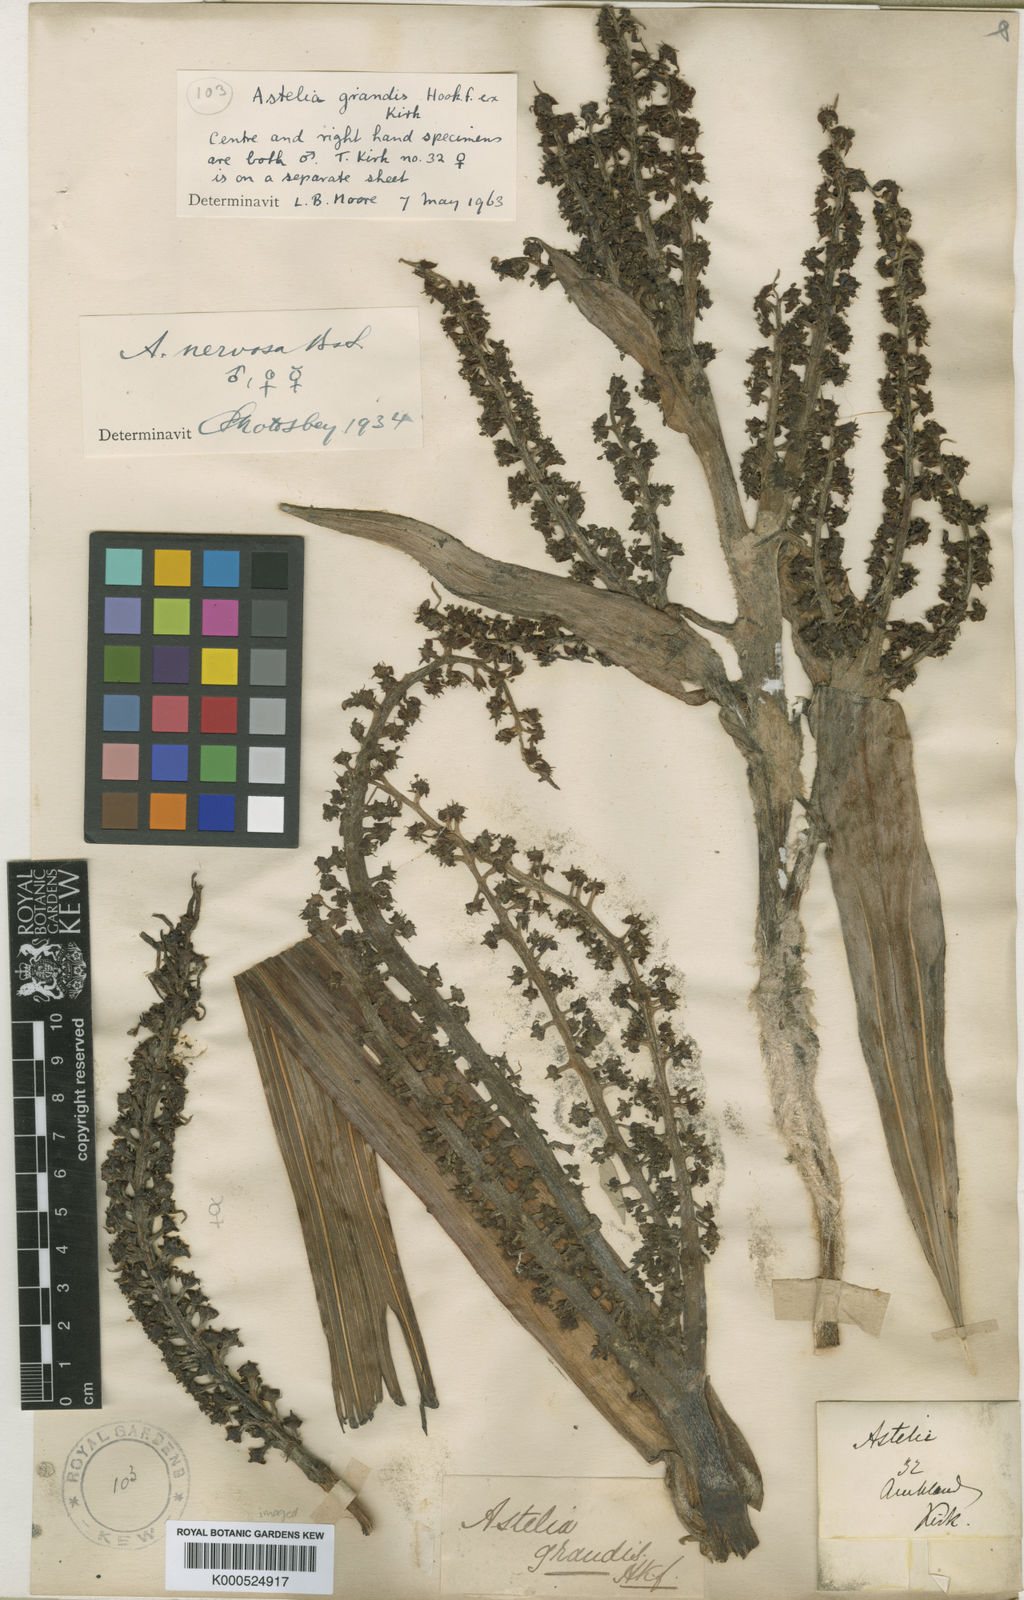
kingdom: Plantae
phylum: Tracheophyta
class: Liliopsida
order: Asparagales
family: Asteliaceae
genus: Astelia
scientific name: Astelia grandis
